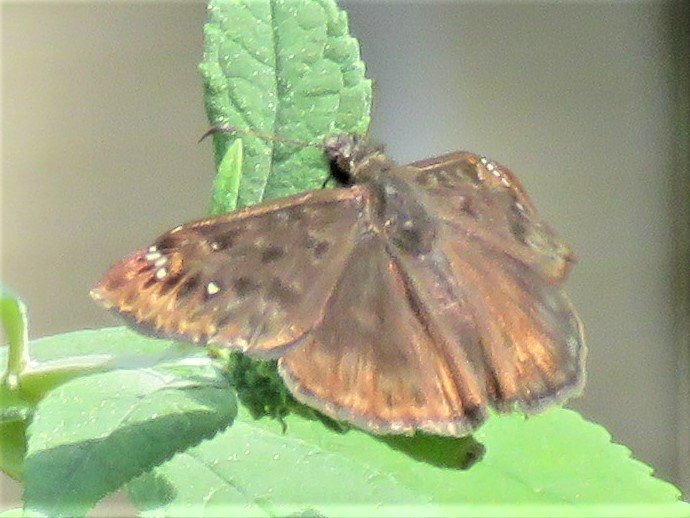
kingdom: Animalia
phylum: Arthropoda
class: Insecta
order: Lepidoptera
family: Hesperiidae
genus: Gesta
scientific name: Gesta
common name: Horace's Duskywing
